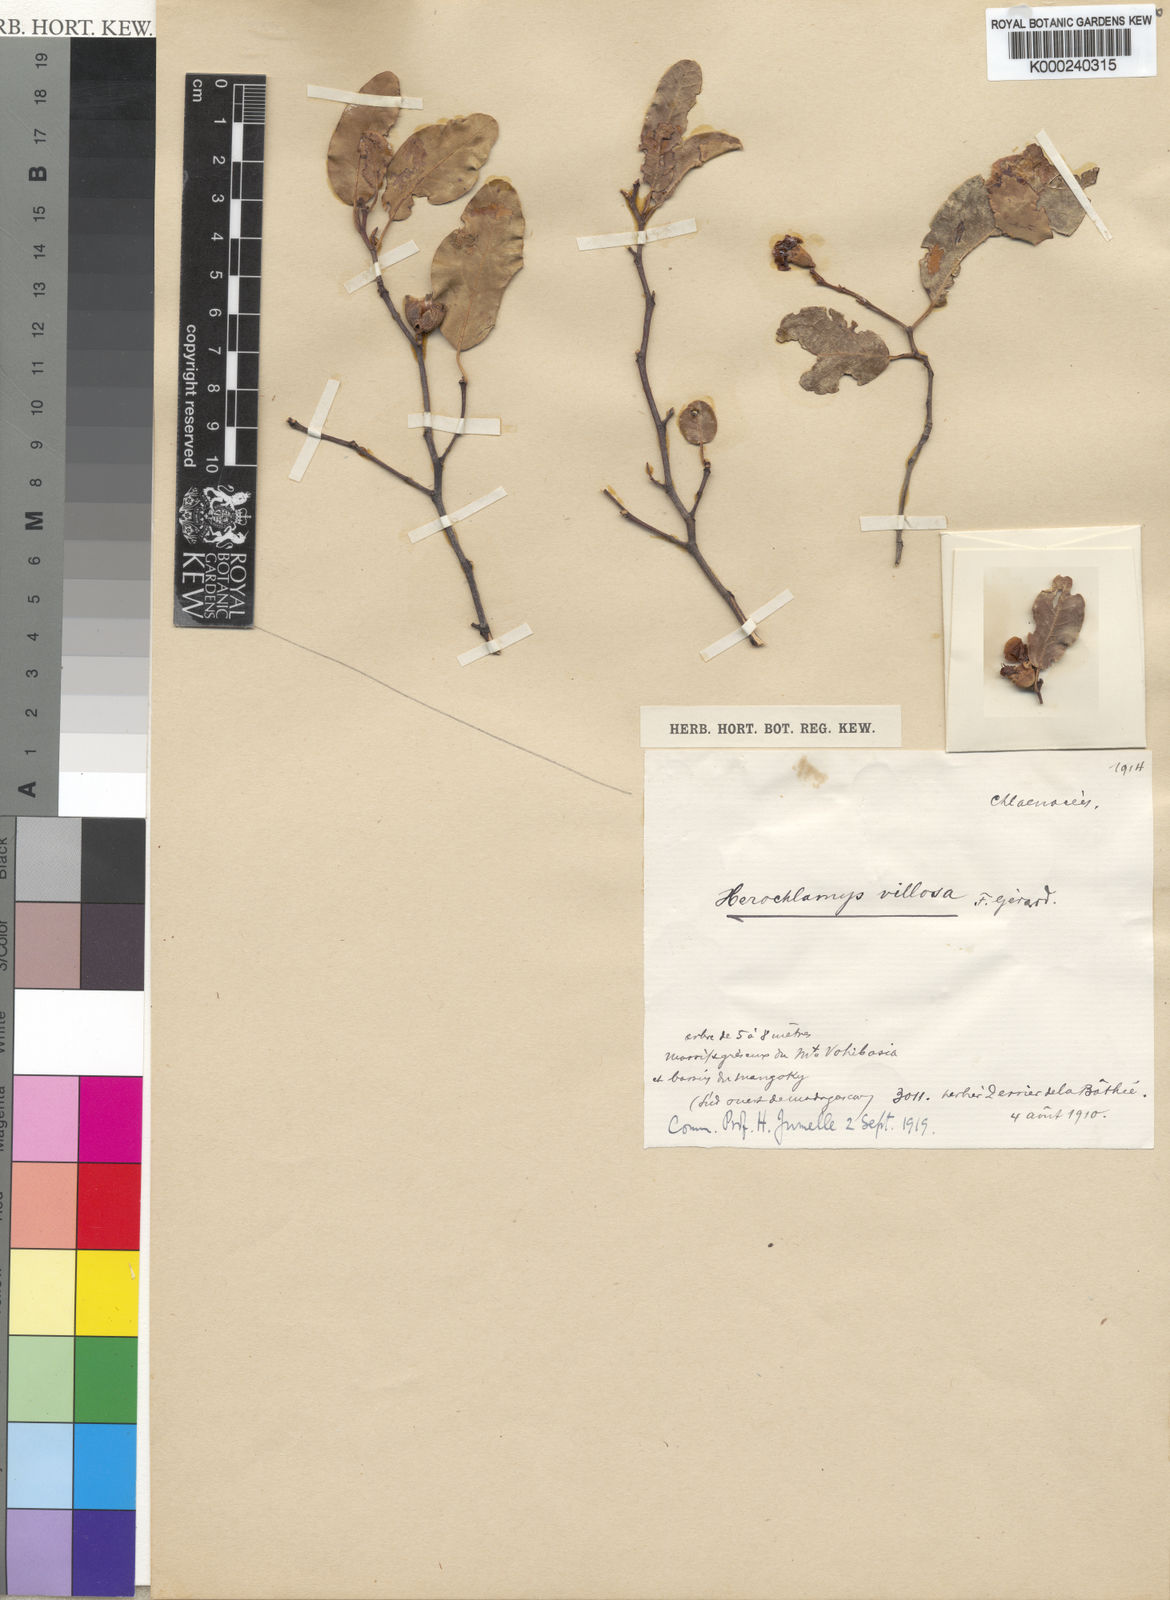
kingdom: Plantae
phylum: Tracheophyta
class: Magnoliopsida
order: Malvales
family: Sarcolaenaceae
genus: Leptolaena
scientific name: Leptolaena
